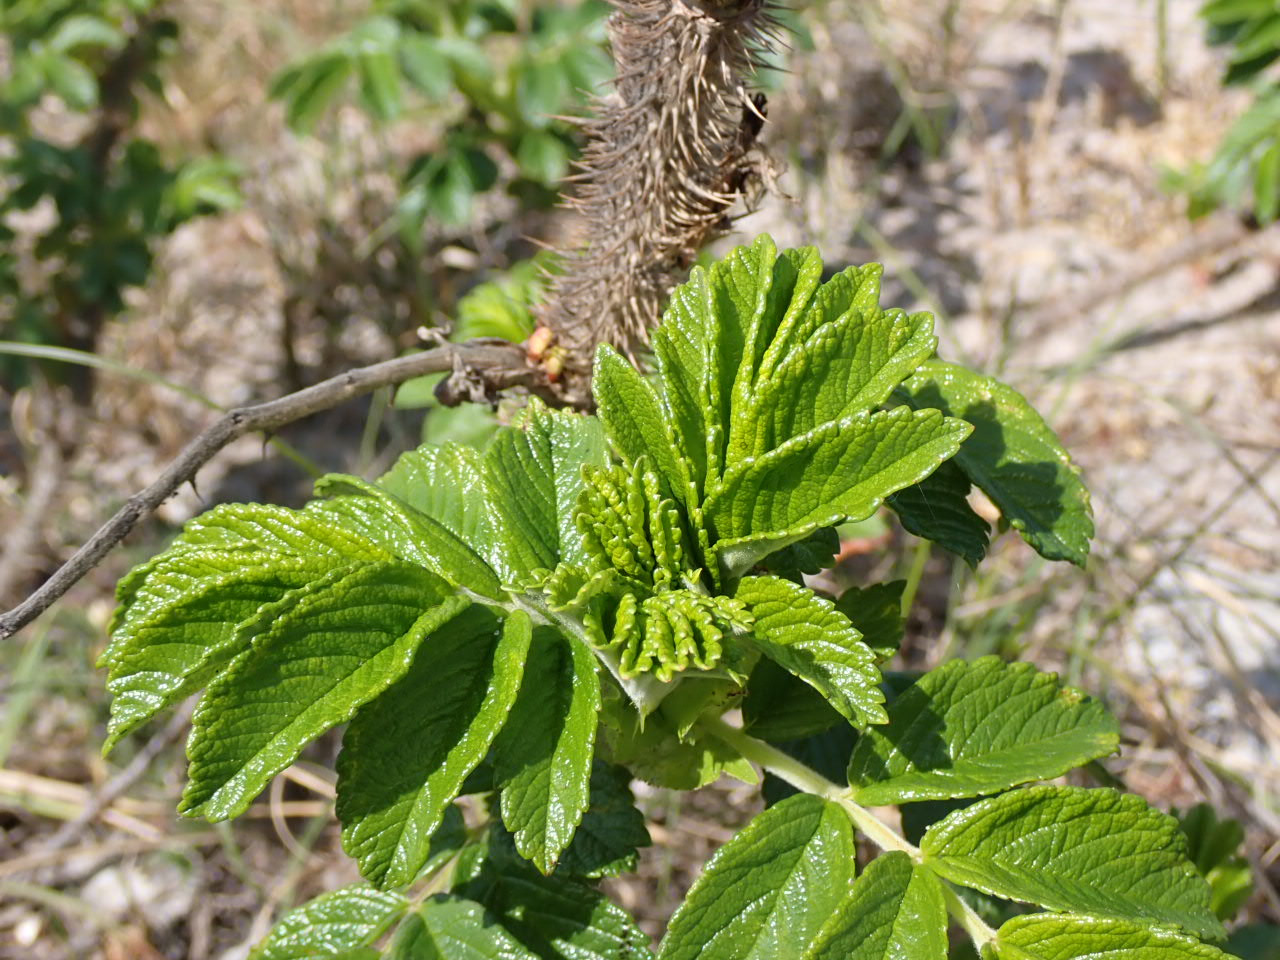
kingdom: Plantae
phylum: Tracheophyta
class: Magnoliopsida
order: Rosales
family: Rosaceae
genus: Rosa
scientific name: Rosa rugosa
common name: Rynket rose
